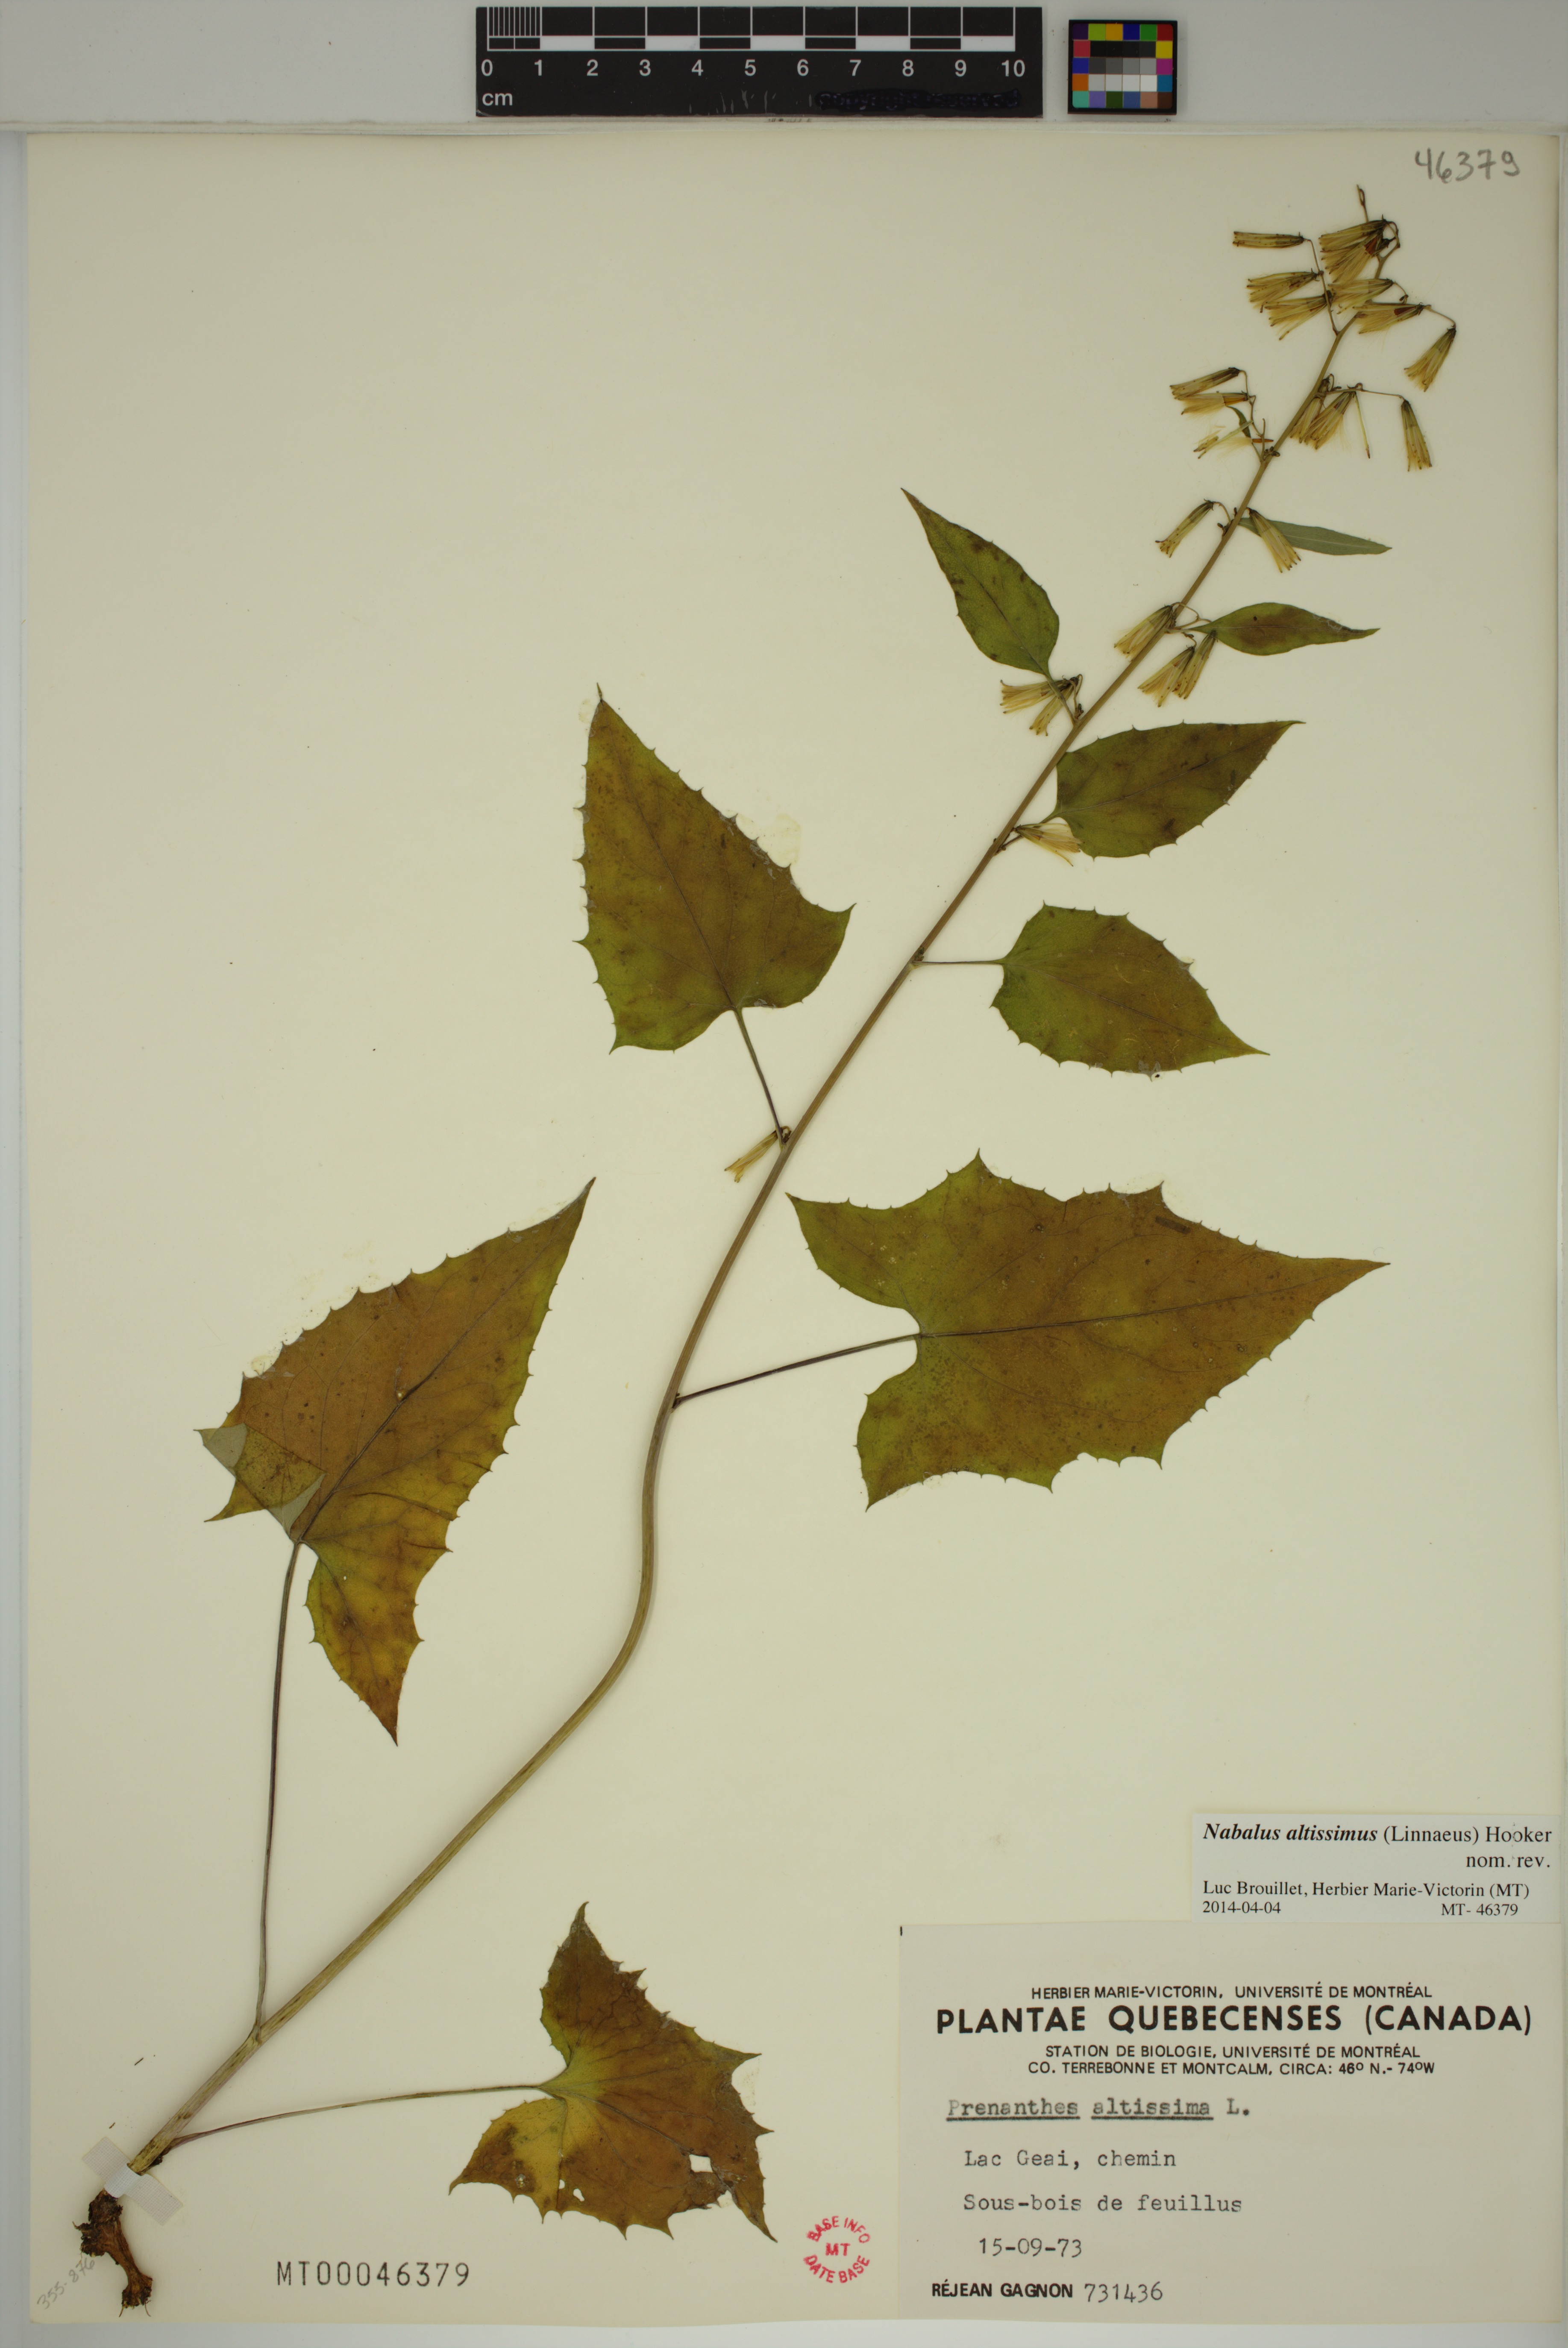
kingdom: Plantae
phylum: Tracheophyta
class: Magnoliopsida
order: Asterales
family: Asteraceae
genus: Nabalus
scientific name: Nabalus altissima
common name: Tall rattlesnakeroot
